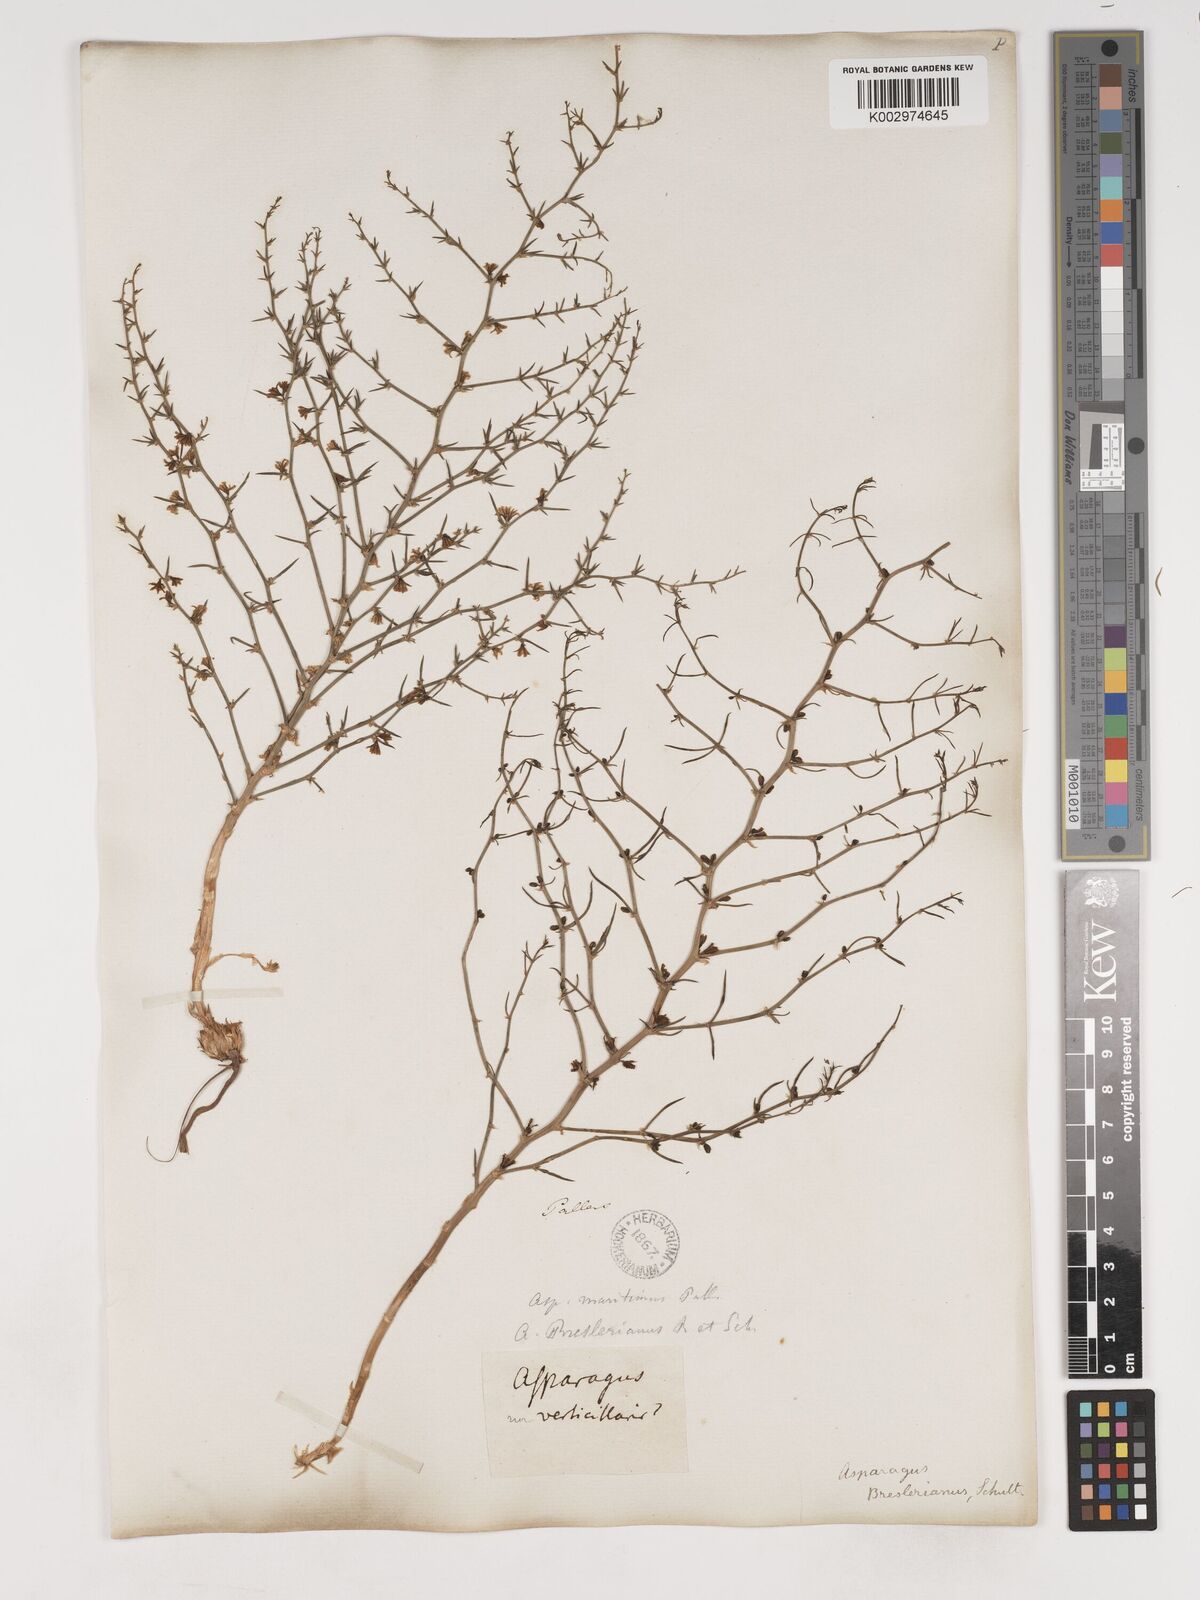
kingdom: Plantae
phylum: Tracheophyta
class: Liliopsida
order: Asparagales
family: Asparagaceae
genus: Asparagus
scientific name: Asparagus breslerianus
